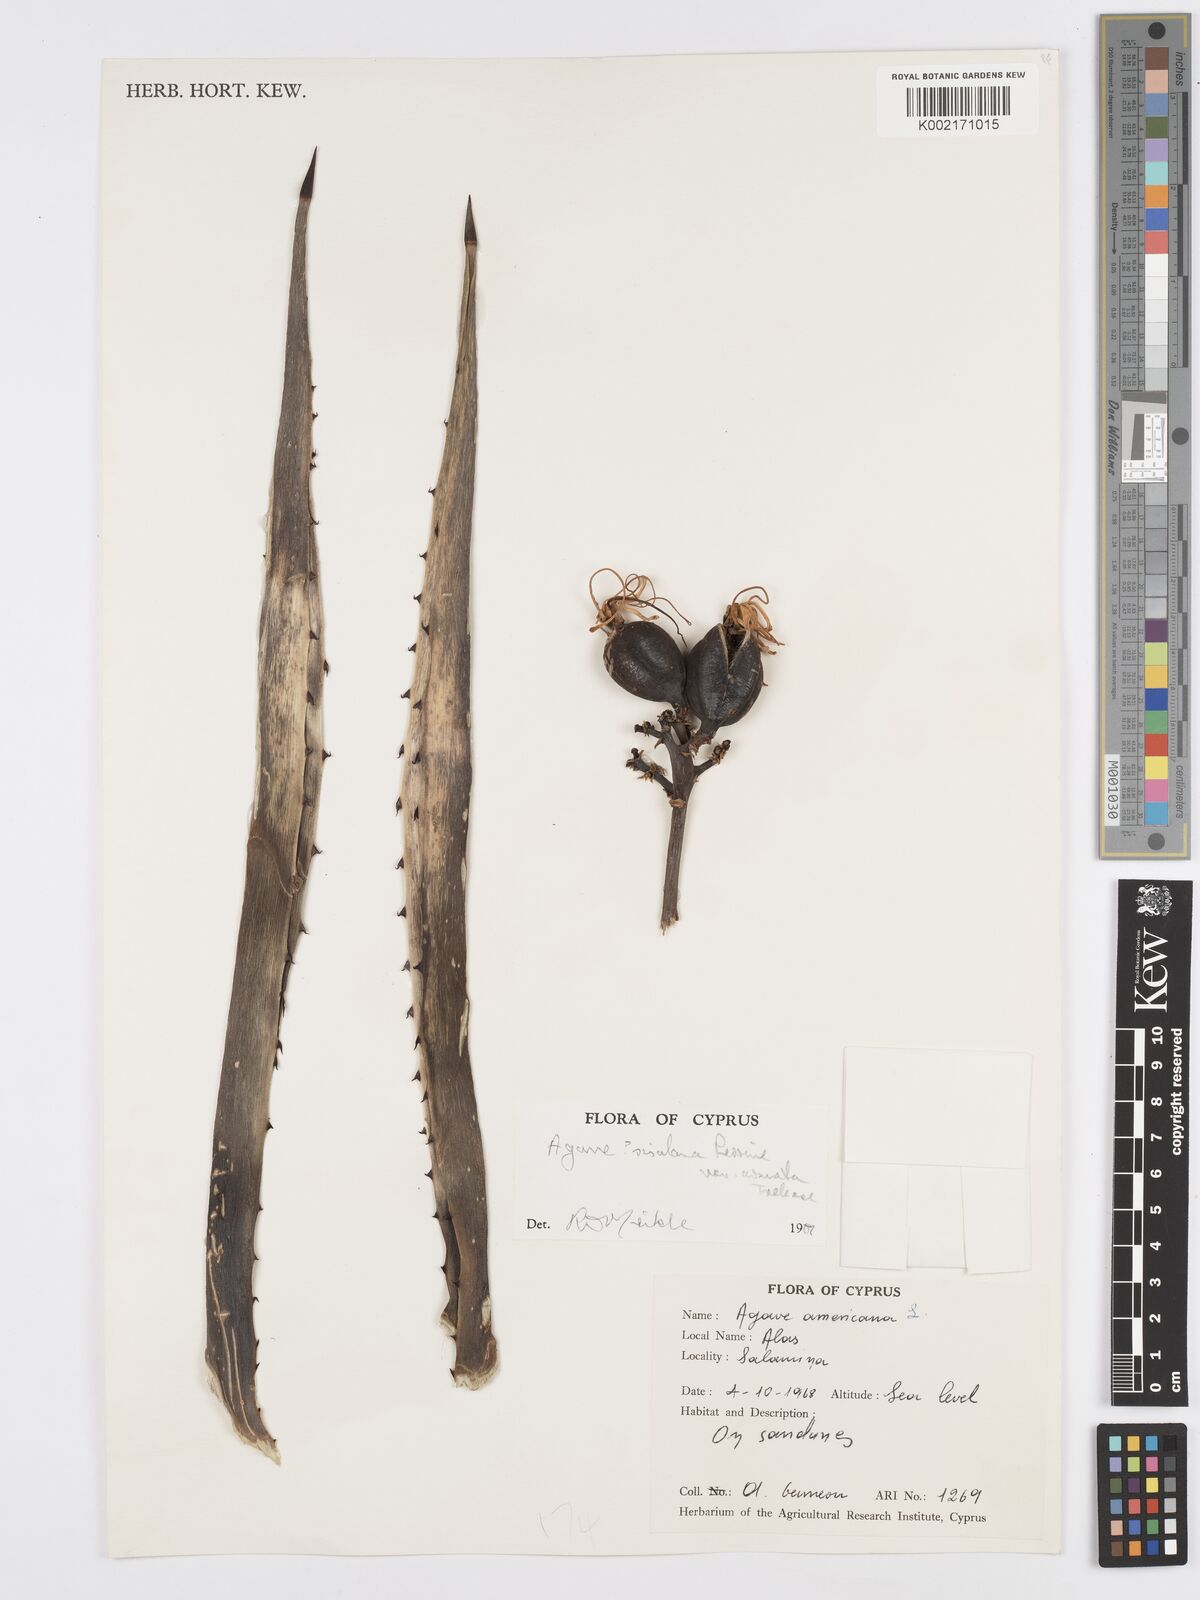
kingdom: Plantae
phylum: Tracheophyta
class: Liliopsida
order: Asparagales
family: Asparagaceae
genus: Agave
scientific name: Agave americana
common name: Centuryplant
